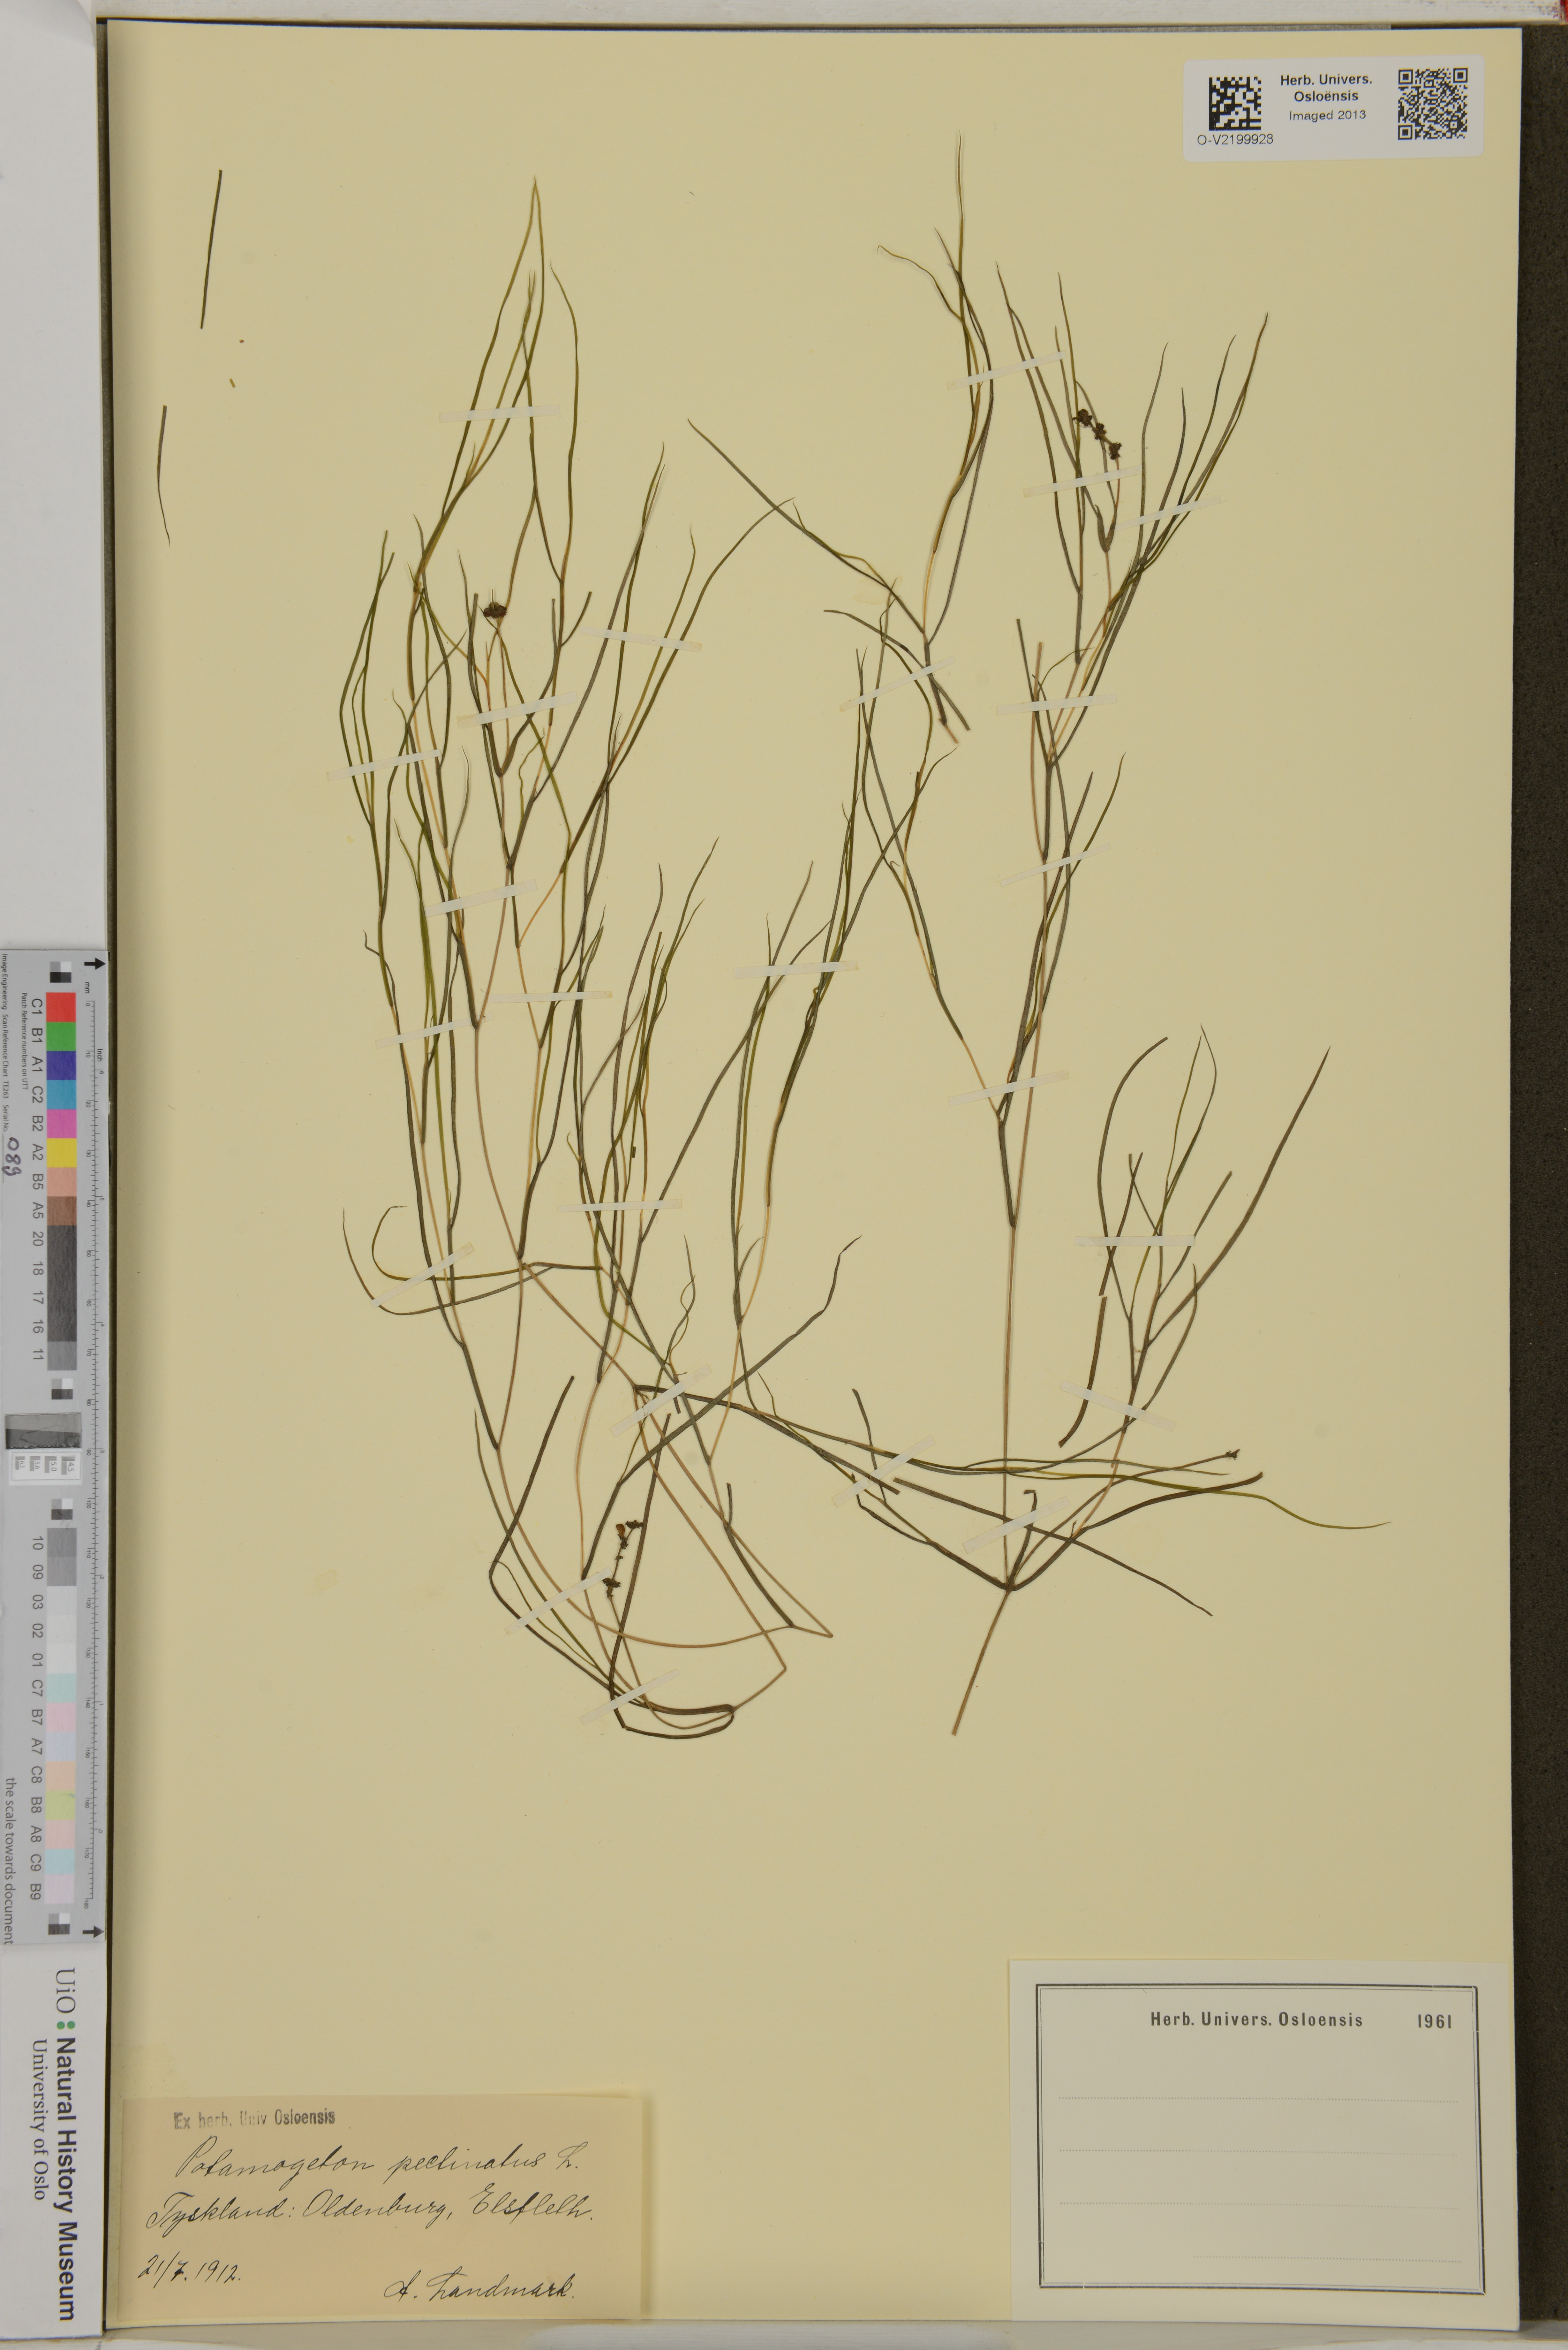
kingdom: Plantae
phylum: Tracheophyta
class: Liliopsida
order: Alismatales
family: Potamogetonaceae
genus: Stuckenia
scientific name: Stuckenia pectinata
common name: Sago pondweed
